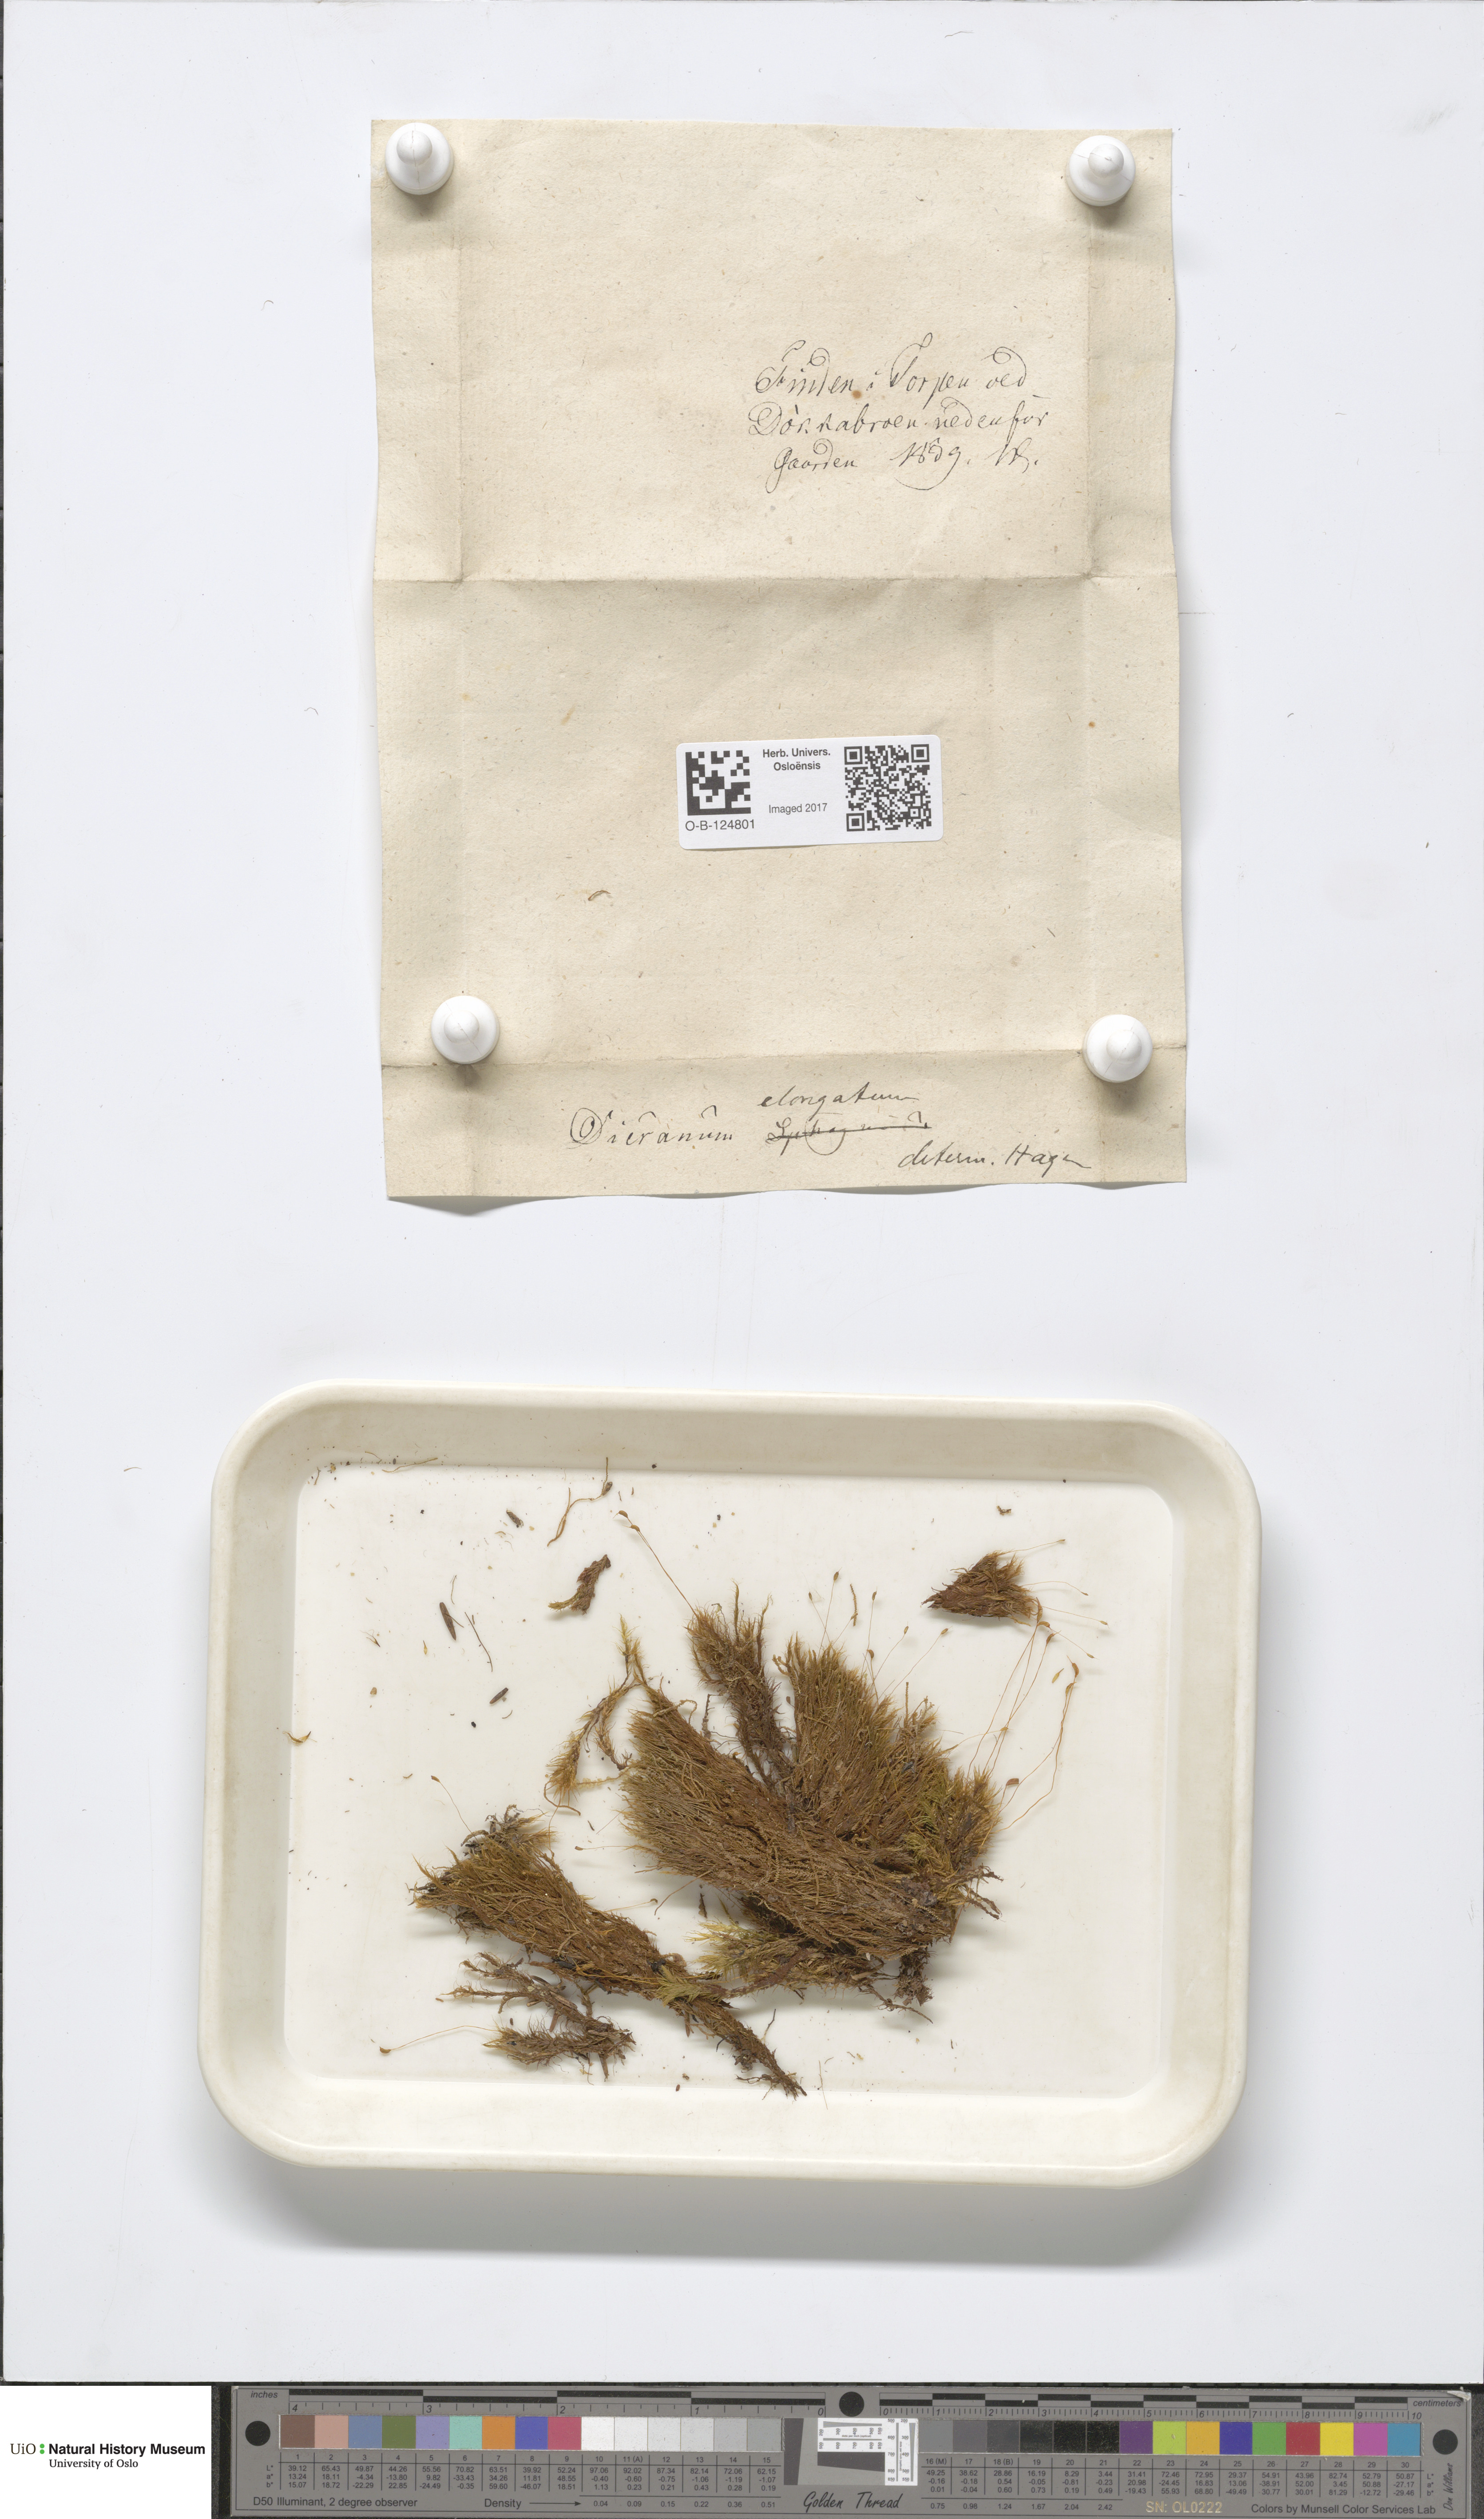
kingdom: Plantae
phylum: Bryophyta
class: Bryopsida
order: Dicranales
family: Dicranaceae
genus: Dicranum
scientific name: Dicranum elongatum
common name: Long-forked broom moss
